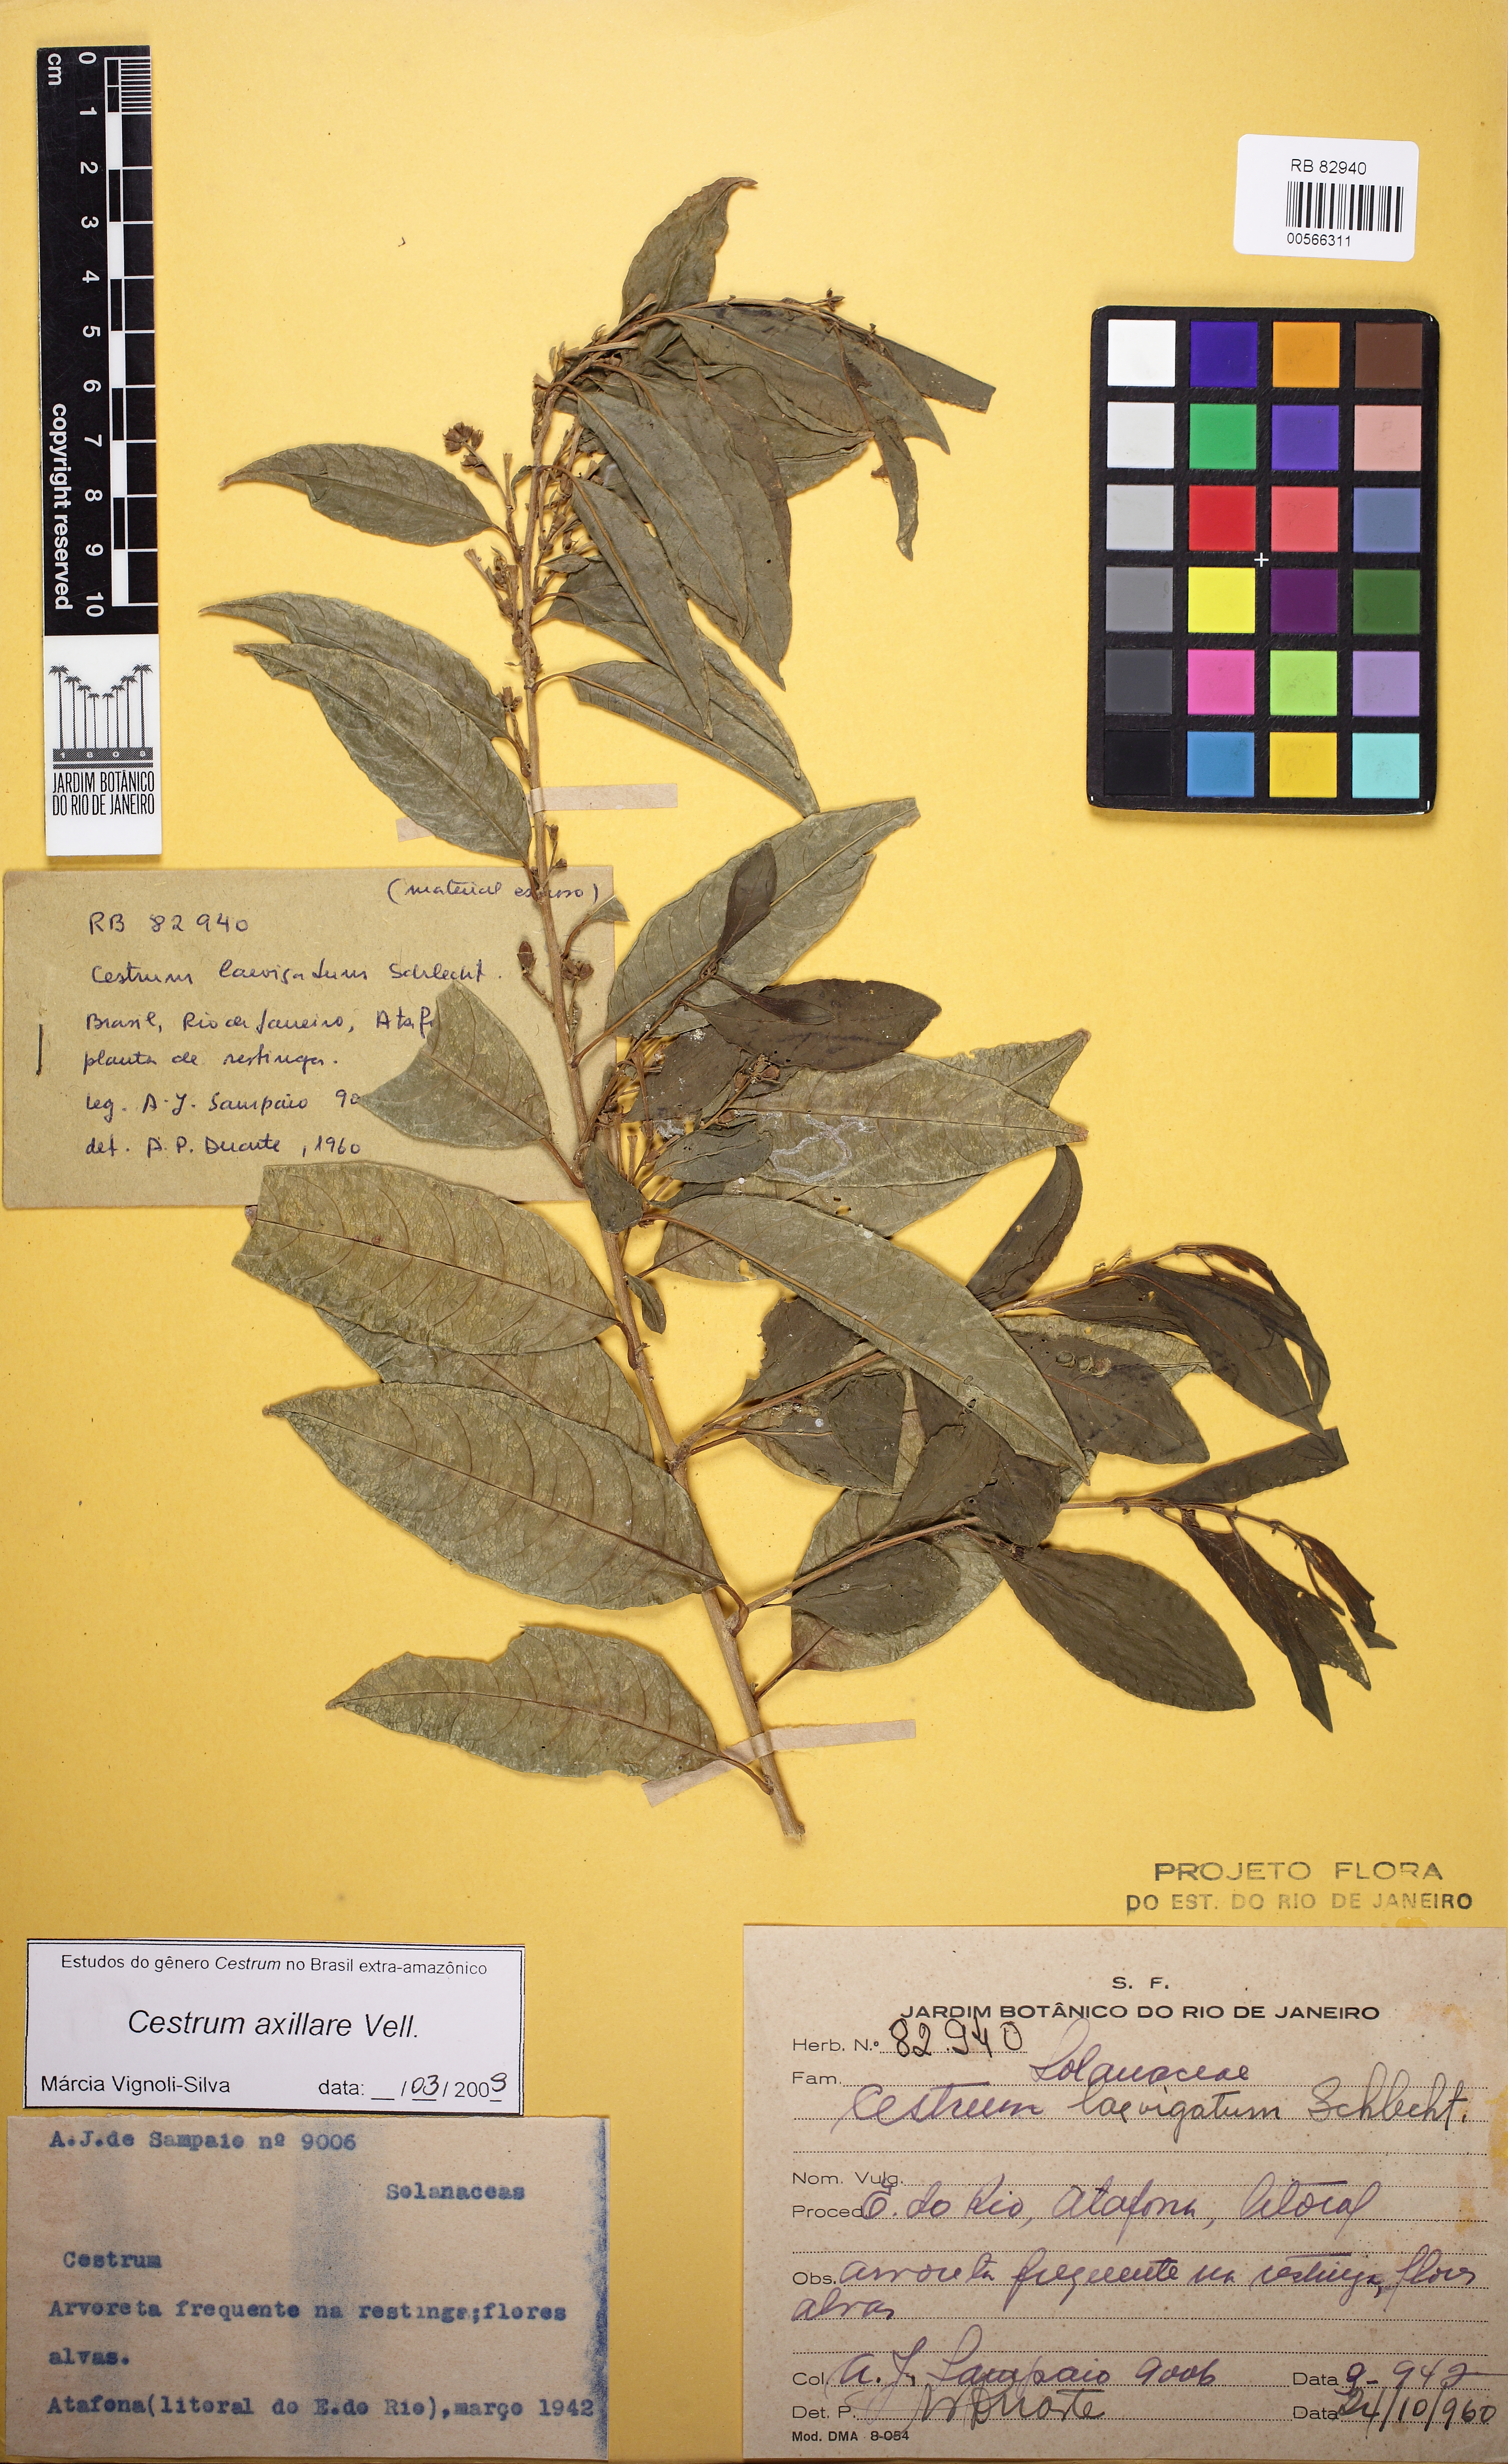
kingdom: Plantae
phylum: Tracheophyta
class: Magnoliopsida
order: Solanales
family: Solanaceae
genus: Cestrum
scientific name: Cestrum laevigatum
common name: Inkberry
